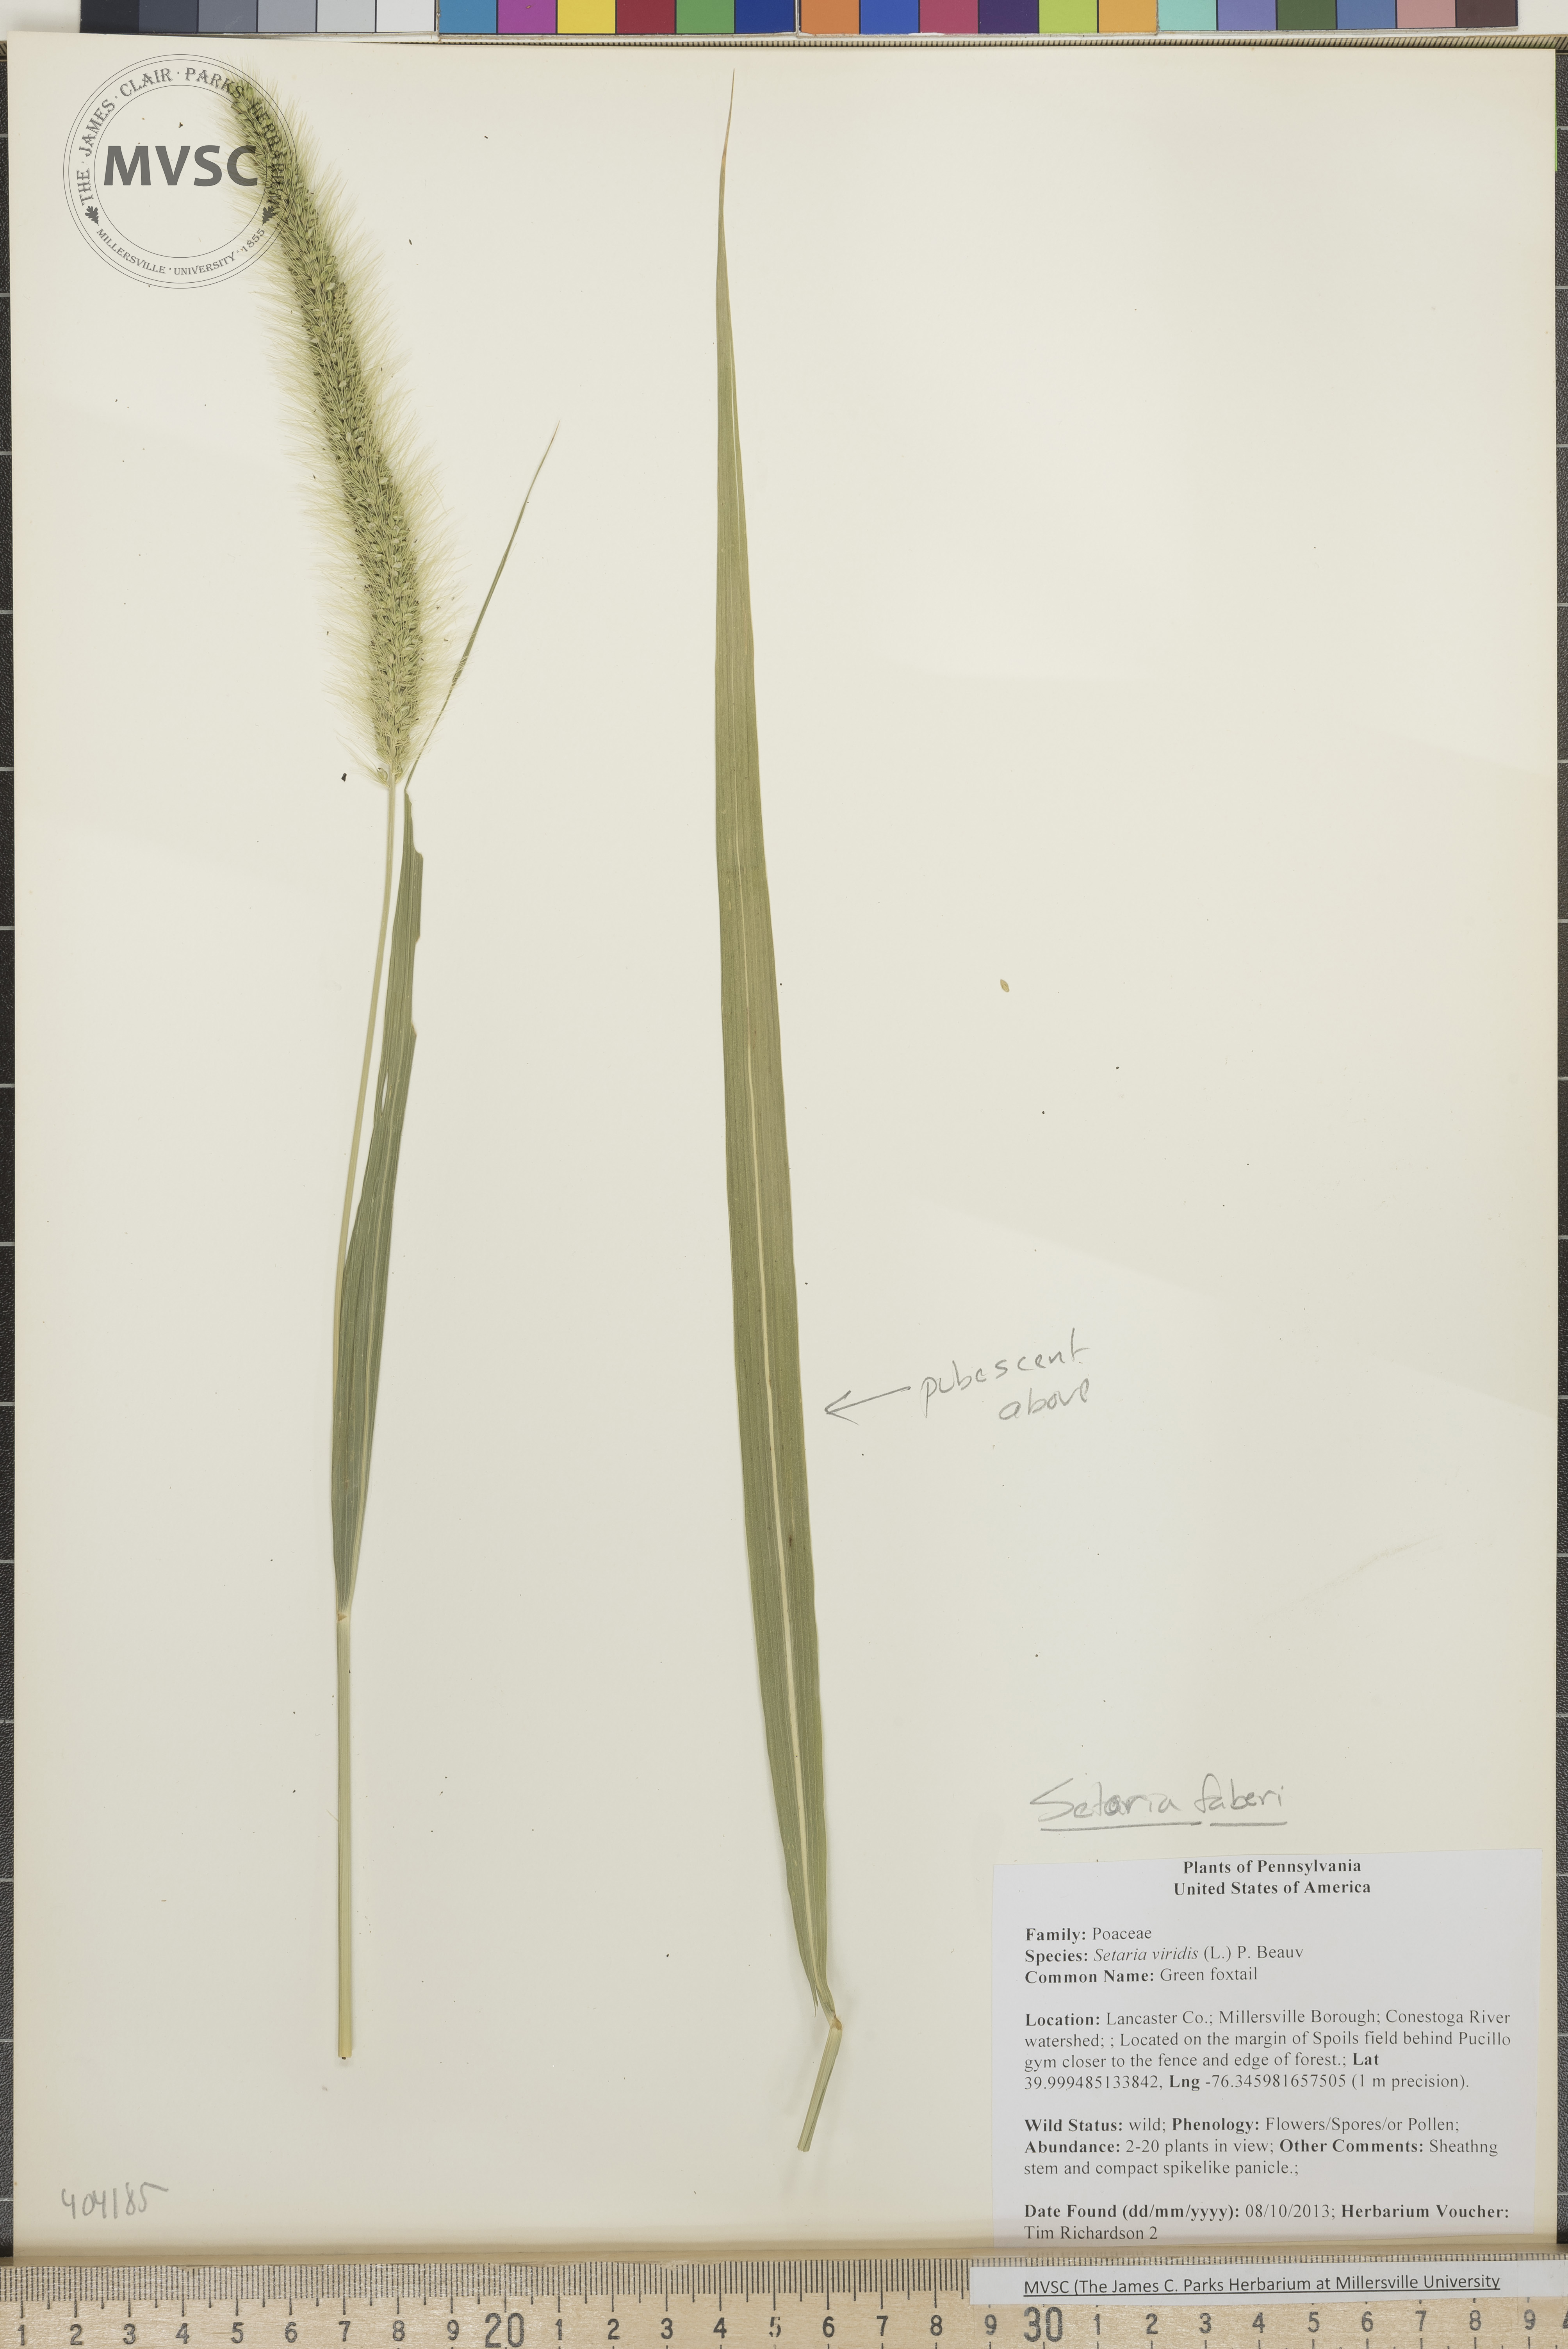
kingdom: Plantae
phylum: Tracheophyta
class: Liliopsida
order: Poales
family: Poaceae
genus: Setaria
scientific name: Setaria faberi
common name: Foxtail
